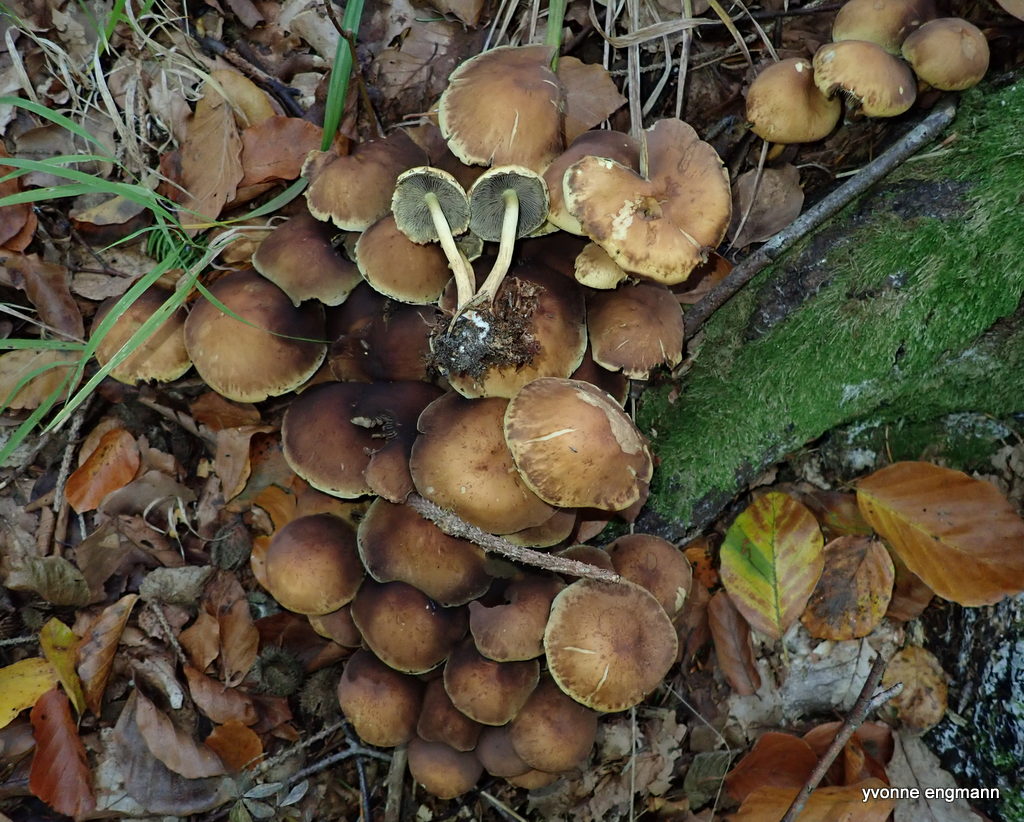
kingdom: Fungi
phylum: Basidiomycota
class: Agaricomycetes
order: Agaricales
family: Strophariaceae
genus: Hypholoma
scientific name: Hypholoma fasciculare
